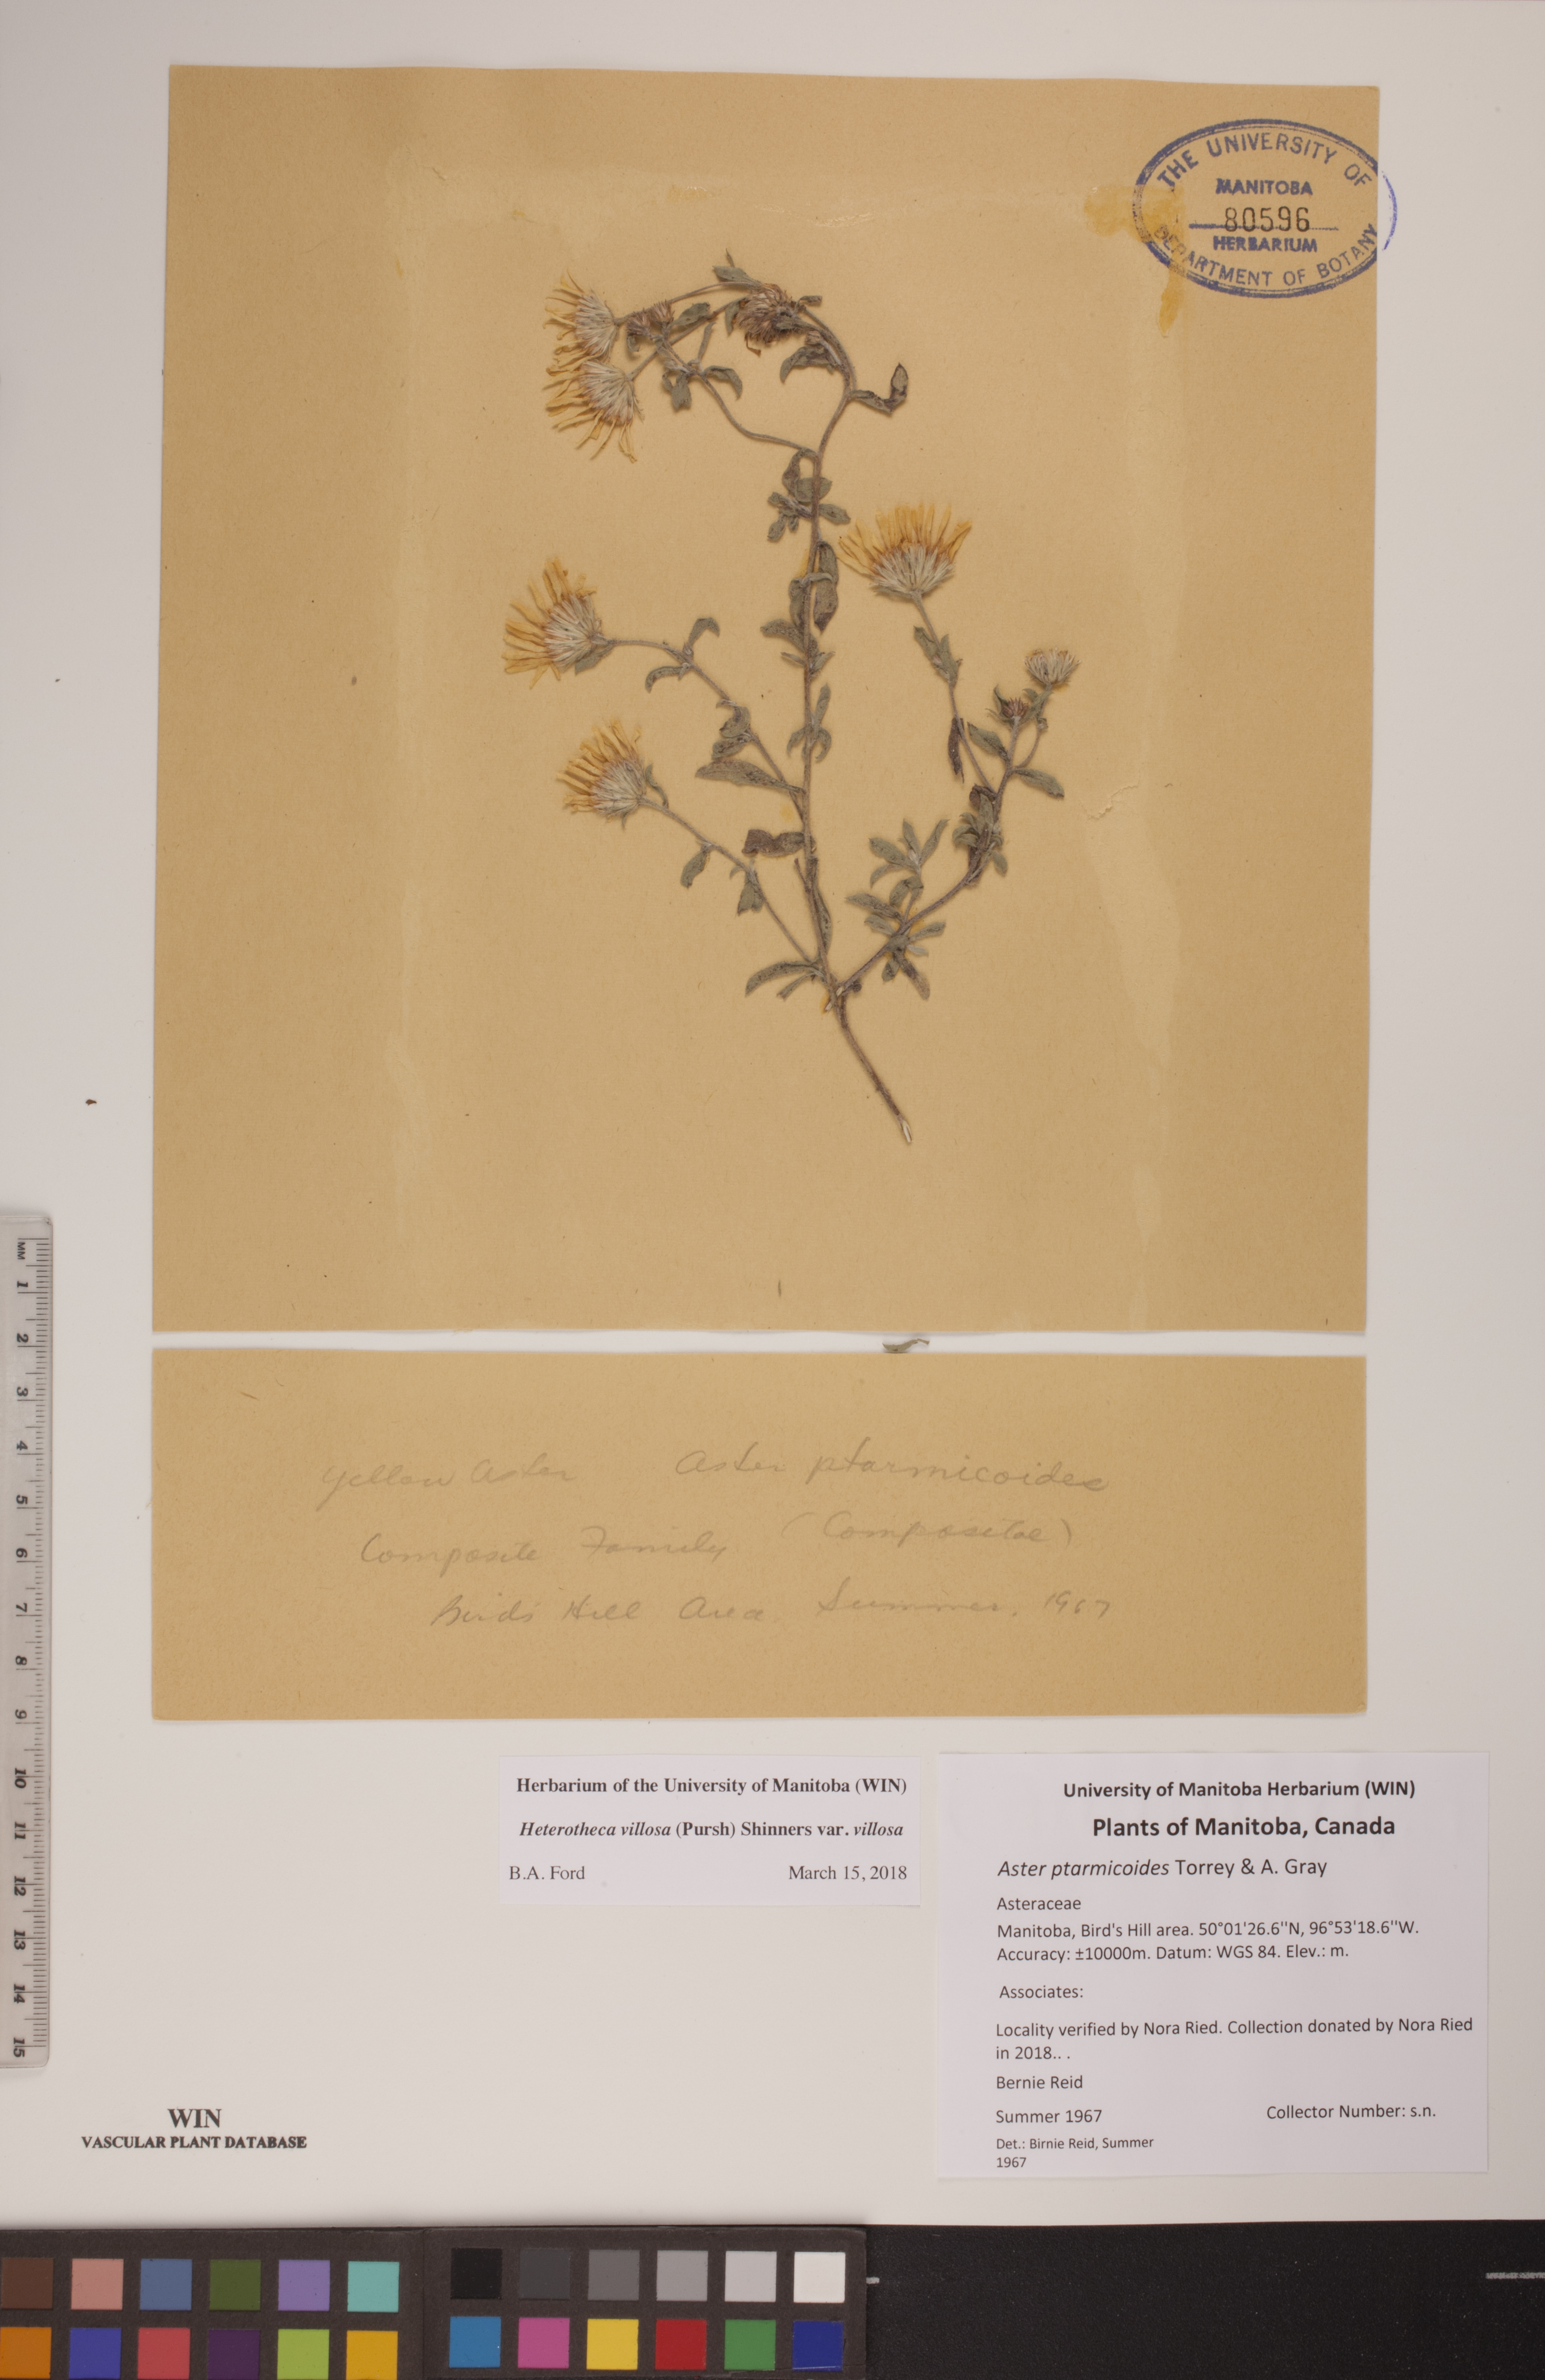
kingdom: Plantae
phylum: Tracheophyta
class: Magnoliopsida
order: Asterales
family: Asteraceae
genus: Heterotheca
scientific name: Heterotheca villosa
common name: Hairy false goldenaster
